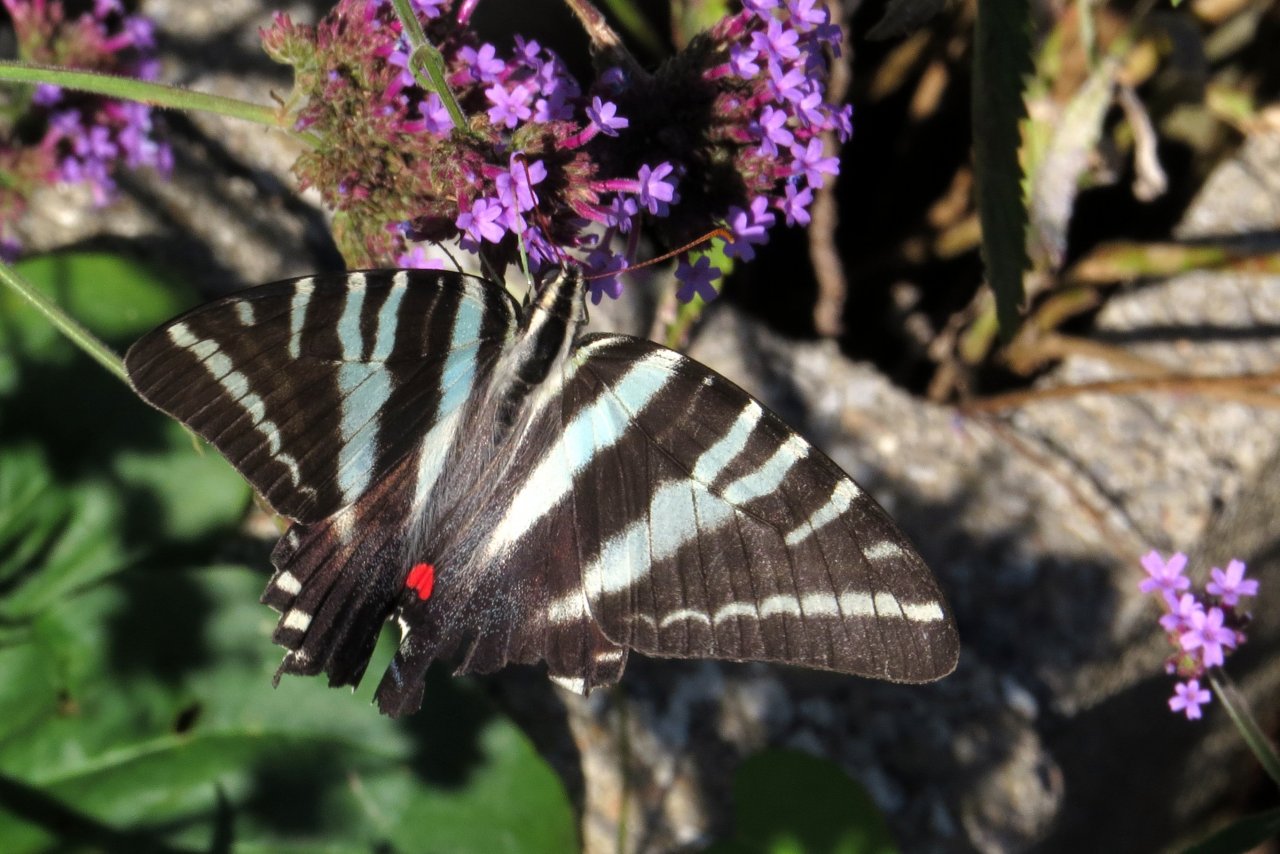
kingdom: Animalia
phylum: Arthropoda
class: Insecta
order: Lepidoptera
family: Papilionidae
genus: Protographium
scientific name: Protographium marcellus
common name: Zebra Swallowtail
